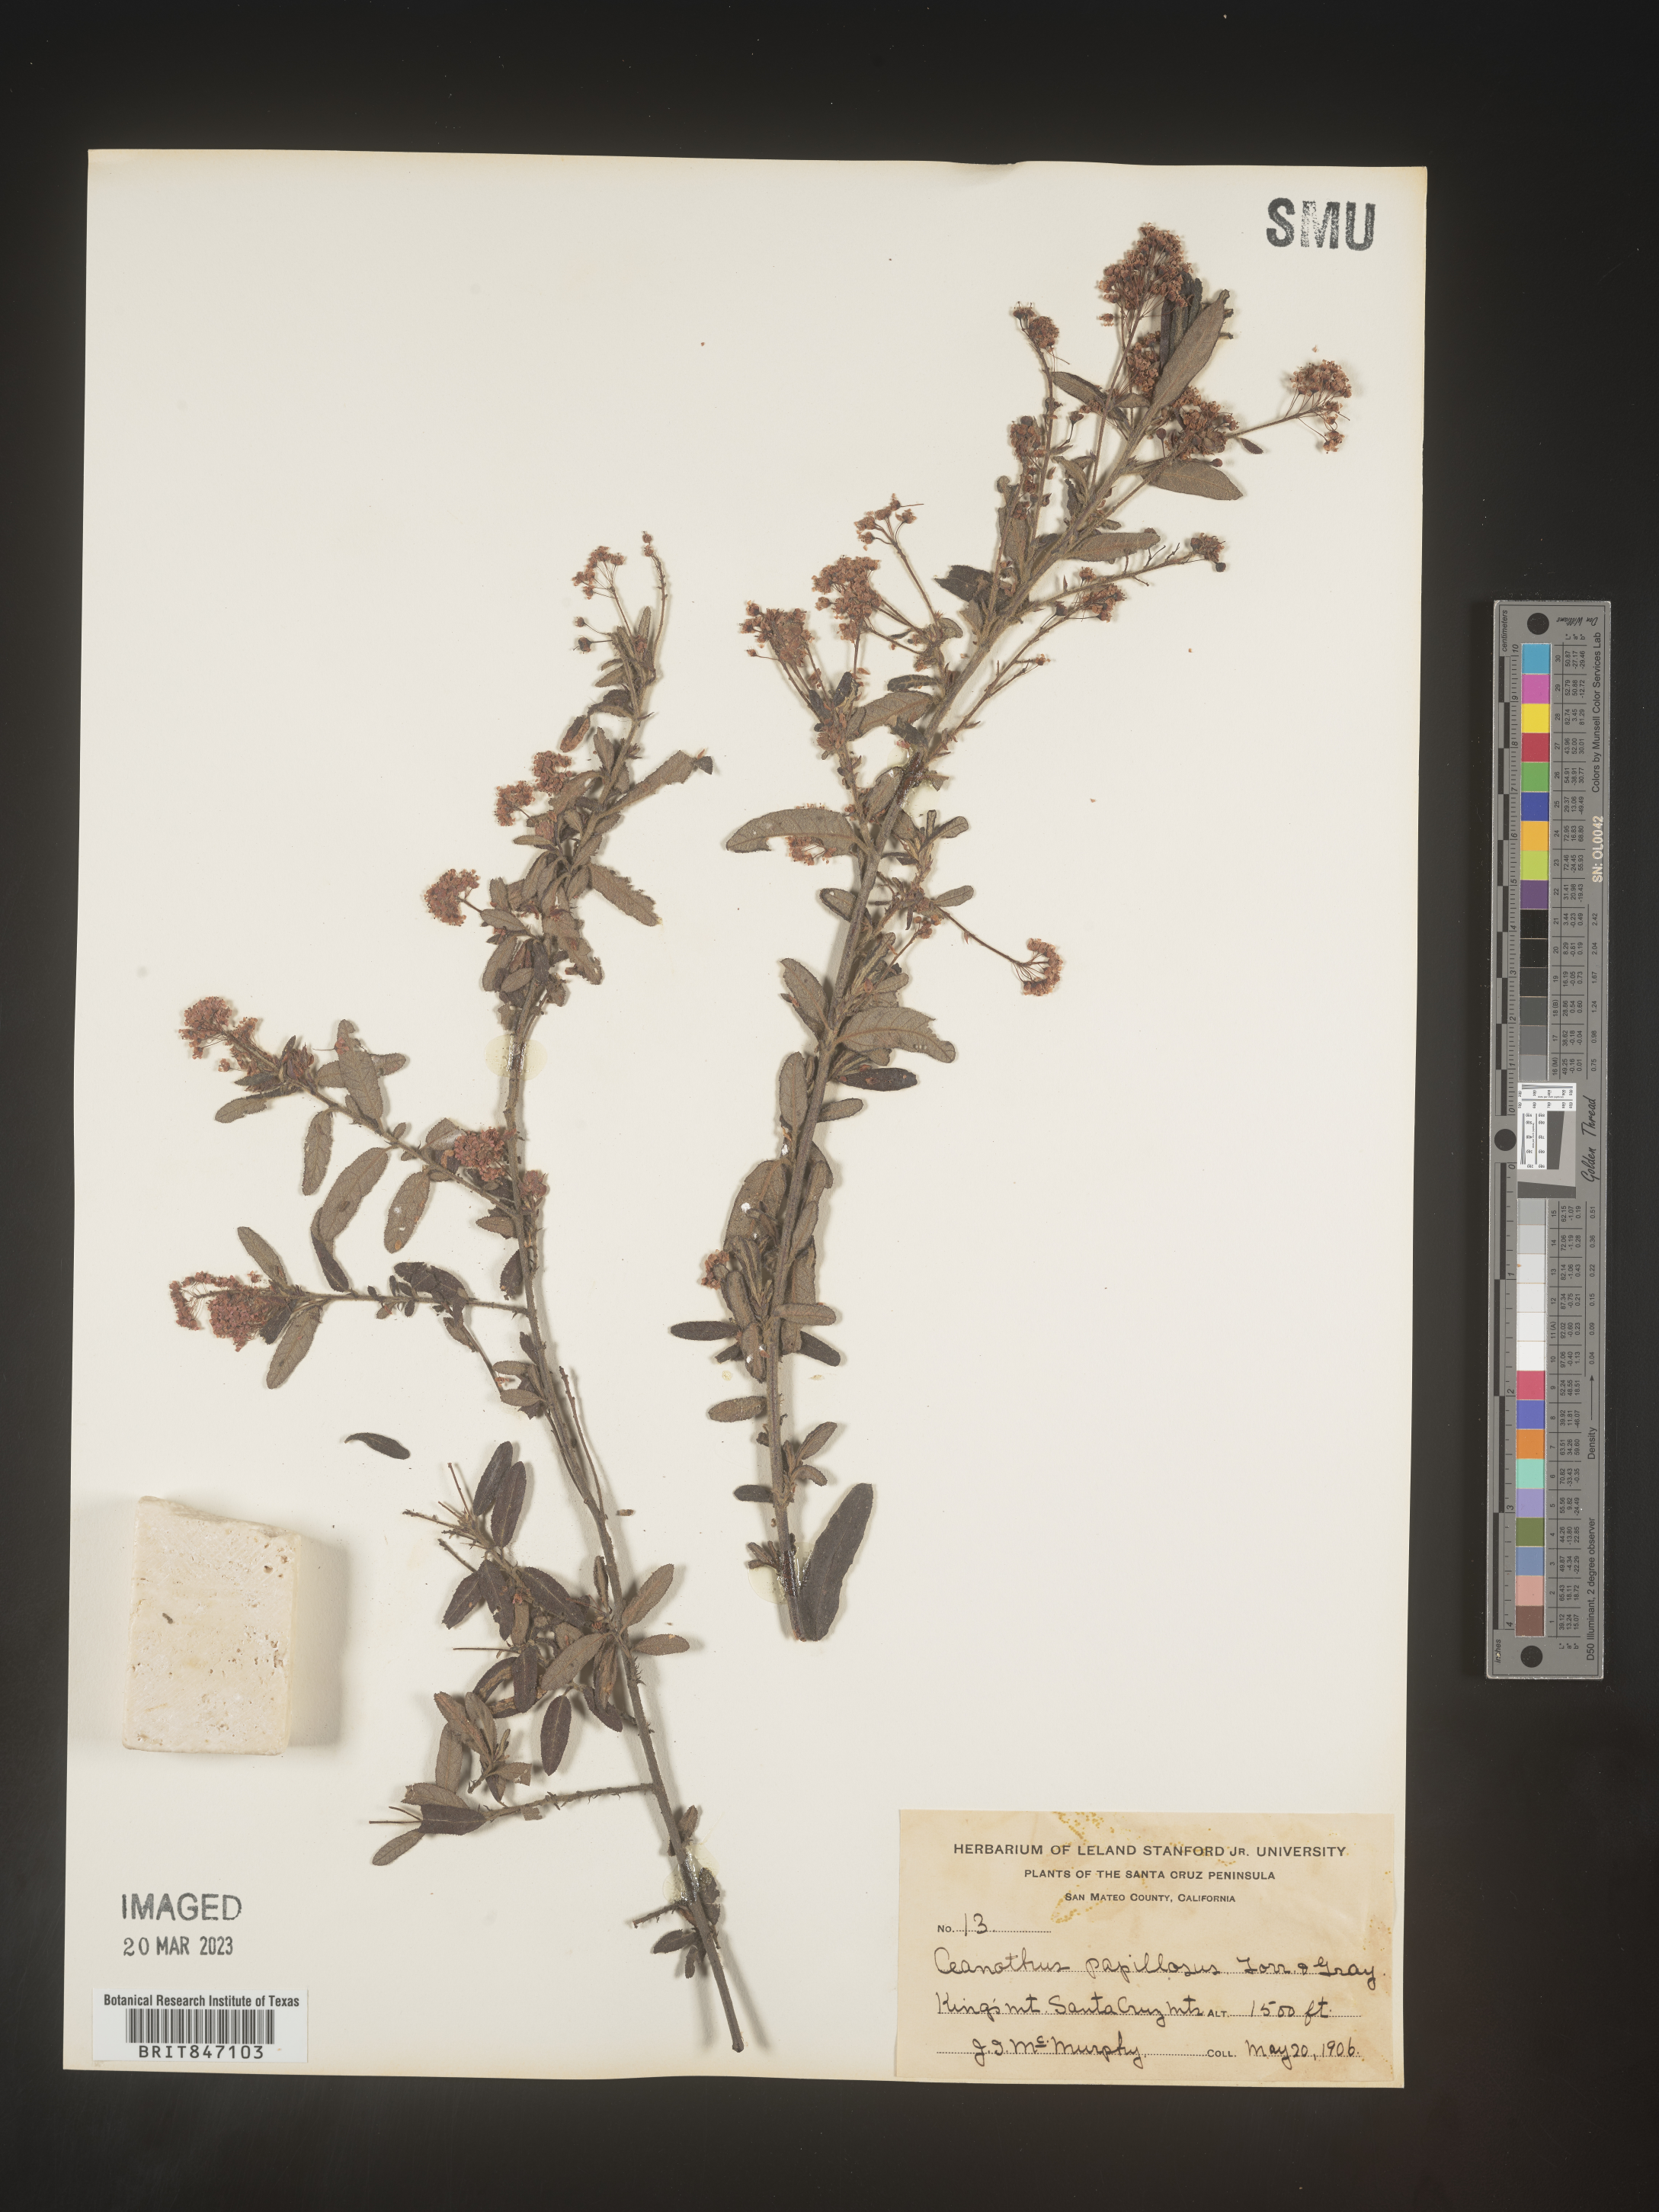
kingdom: Plantae
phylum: Tracheophyta
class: Magnoliopsida
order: Rosales
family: Rhamnaceae
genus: Ceanothus
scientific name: Ceanothus
